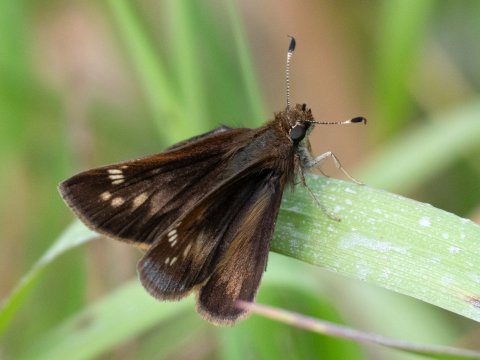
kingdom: Animalia
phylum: Arthropoda
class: Insecta
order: Lepidoptera
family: Hesperiidae
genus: Lon
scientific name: Lon hobomok
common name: Hobomok Skipper
